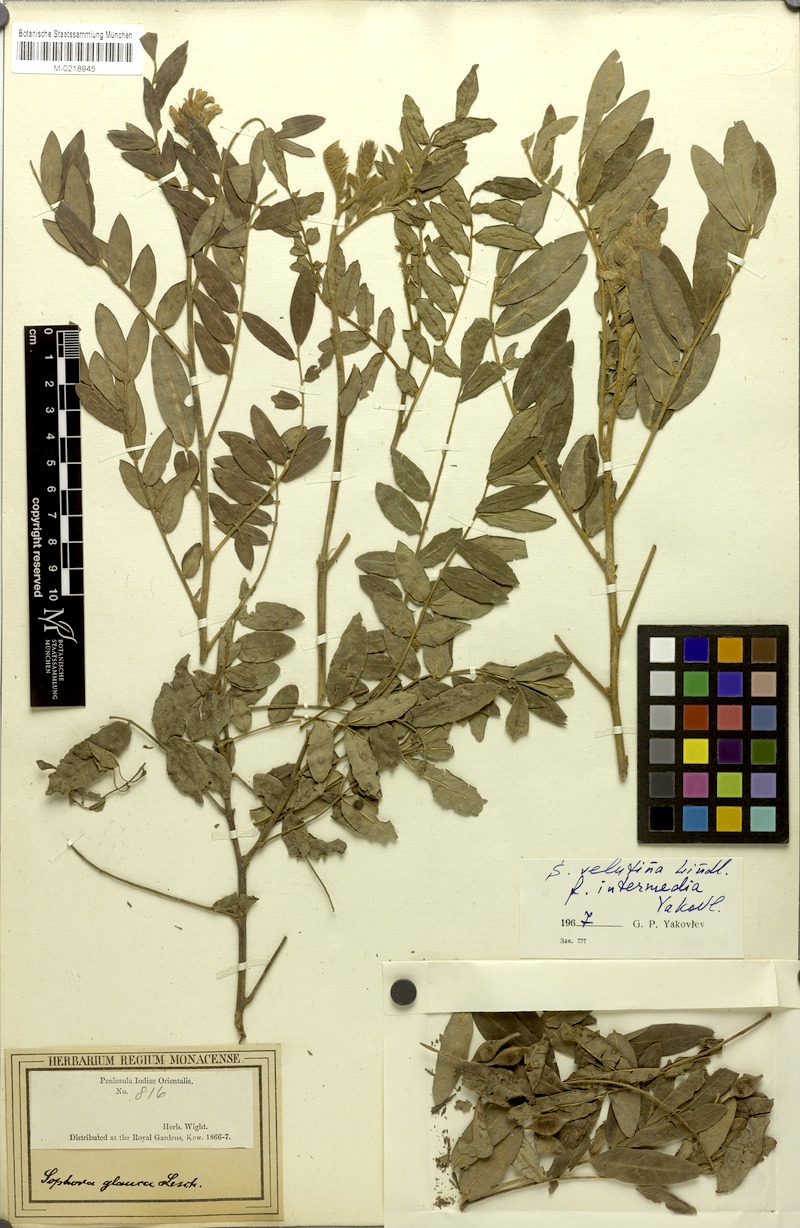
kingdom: Plantae
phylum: Tracheophyta
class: Magnoliopsida
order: Fabales
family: Fabaceae
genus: Sophora
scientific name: Sophora velutina
